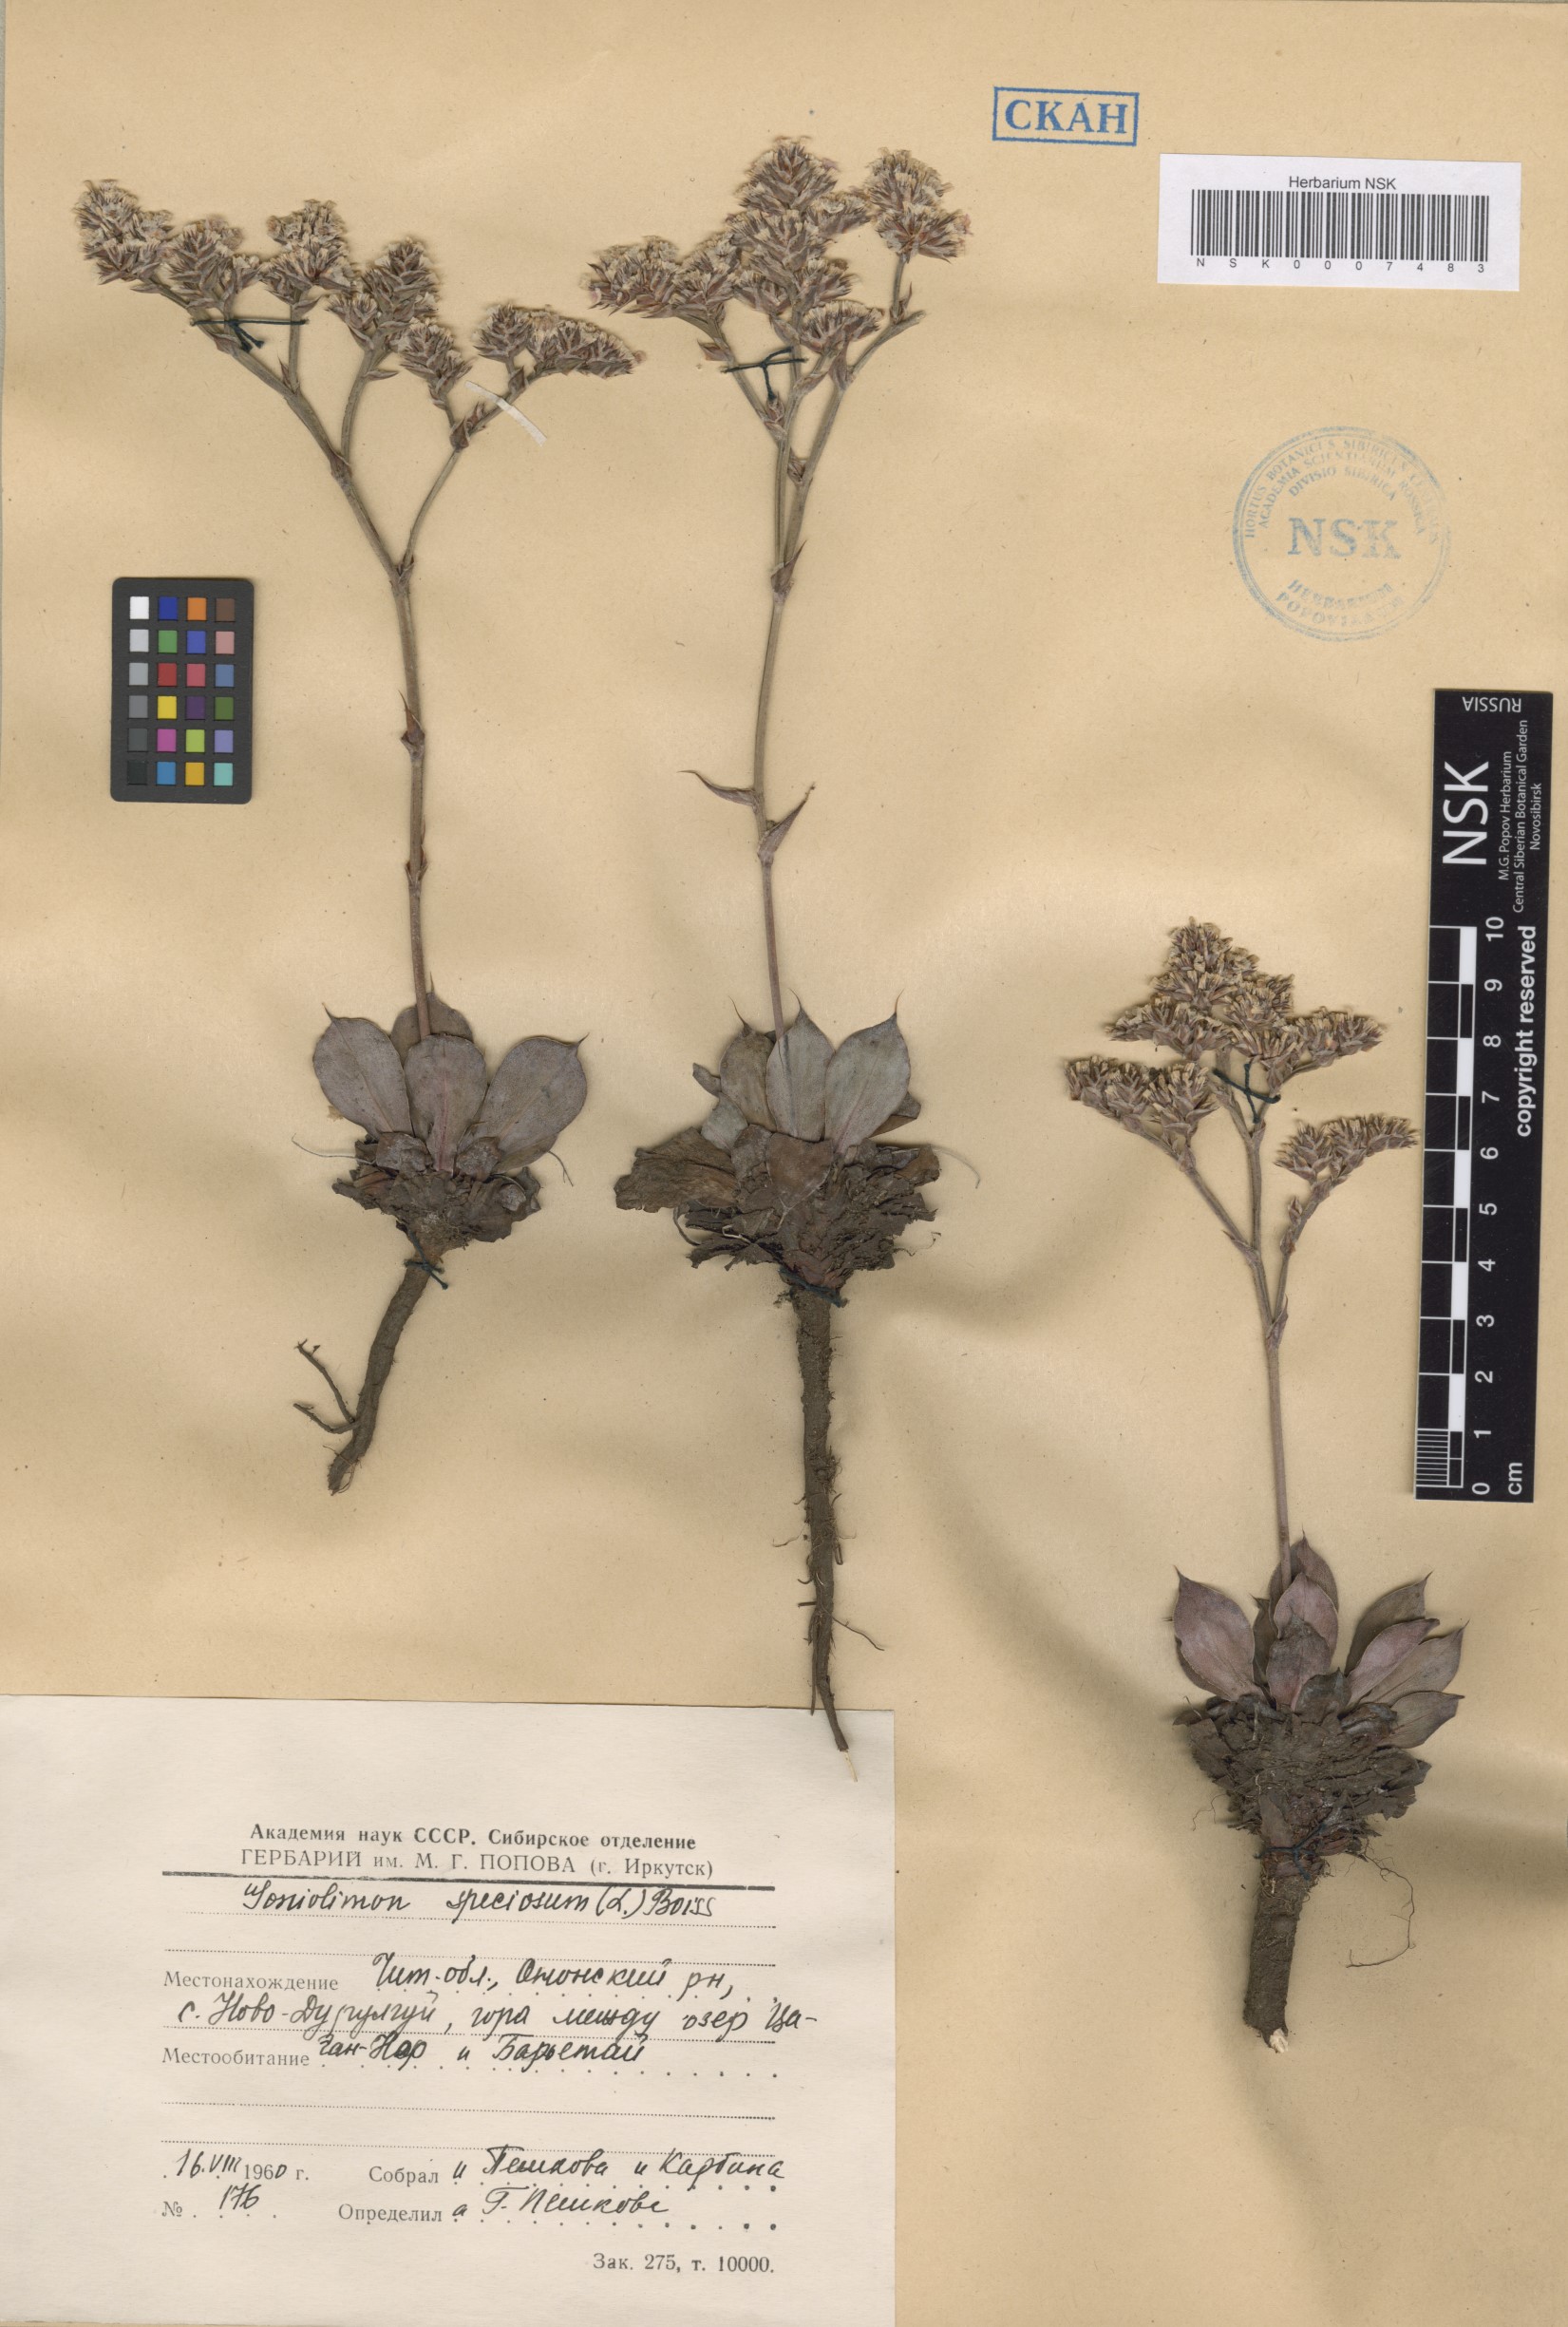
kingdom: Plantae
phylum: Tracheophyta
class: Magnoliopsida
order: Caryophyllales
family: Plumbaginaceae
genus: Goniolimon
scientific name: Goniolimon speciosum
